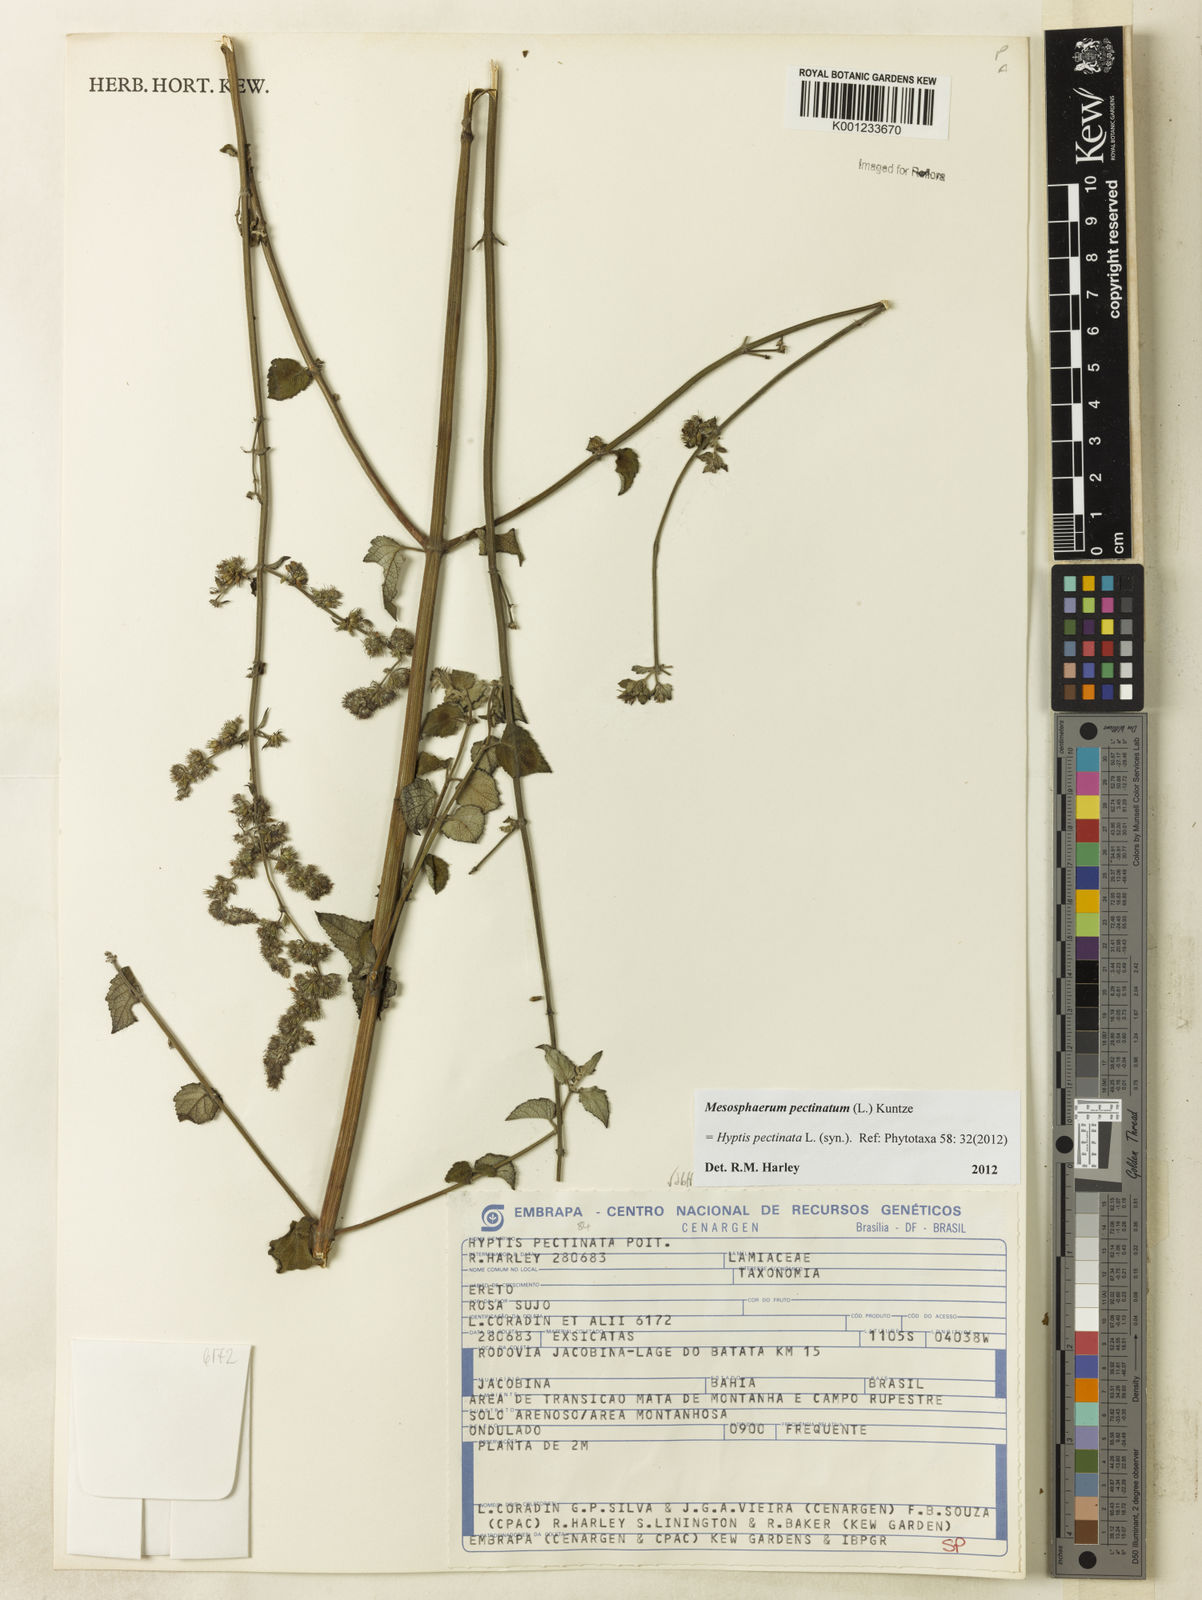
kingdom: Plantae
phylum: Tracheophyta
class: Magnoliopsida
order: Lamiales
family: Lamiaceae
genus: Mesosphaerum
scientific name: Mesosphaerum pectinatum
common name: Comb hyptis
